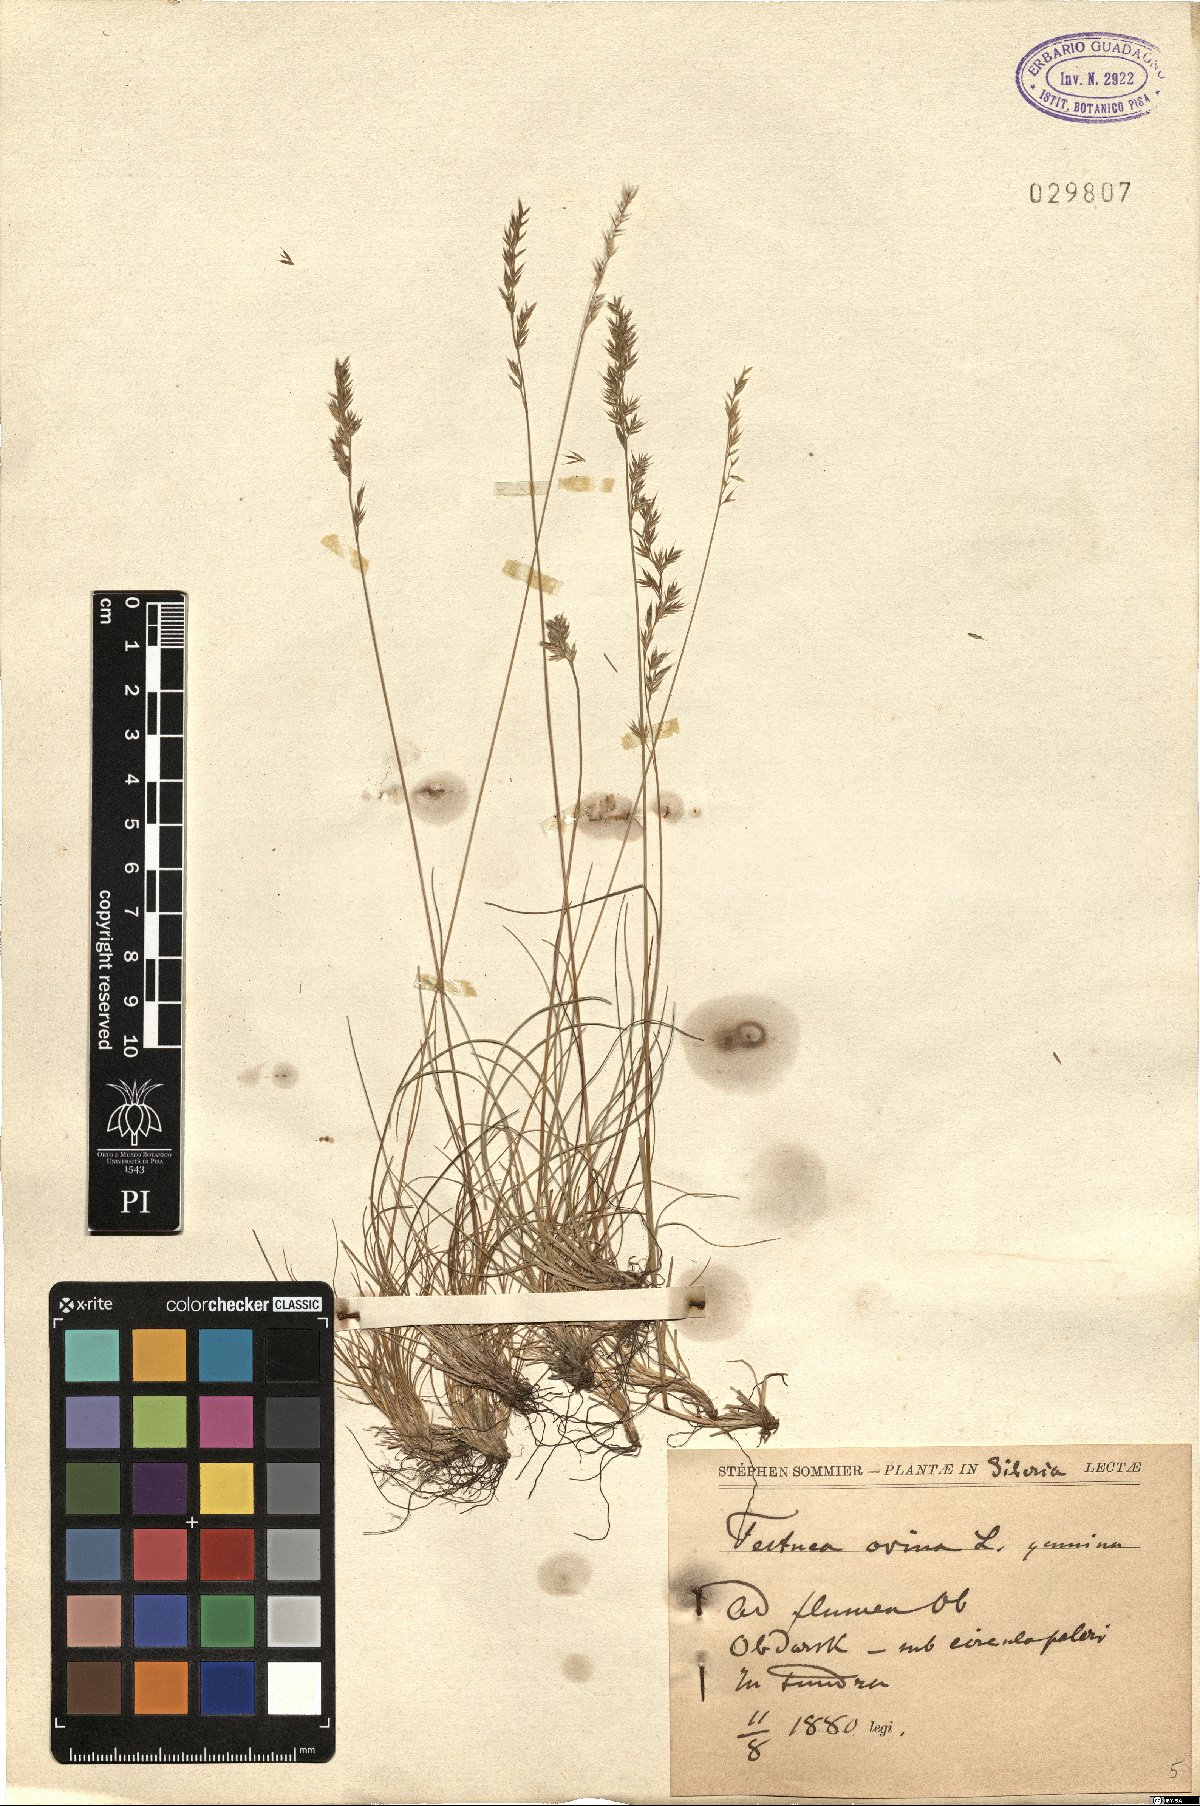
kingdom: Plantae
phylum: Tracheophyta
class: Liliopsida
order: Poales
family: Poaceae
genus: Festuca
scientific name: Festuca ovina
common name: Sheep fescue
